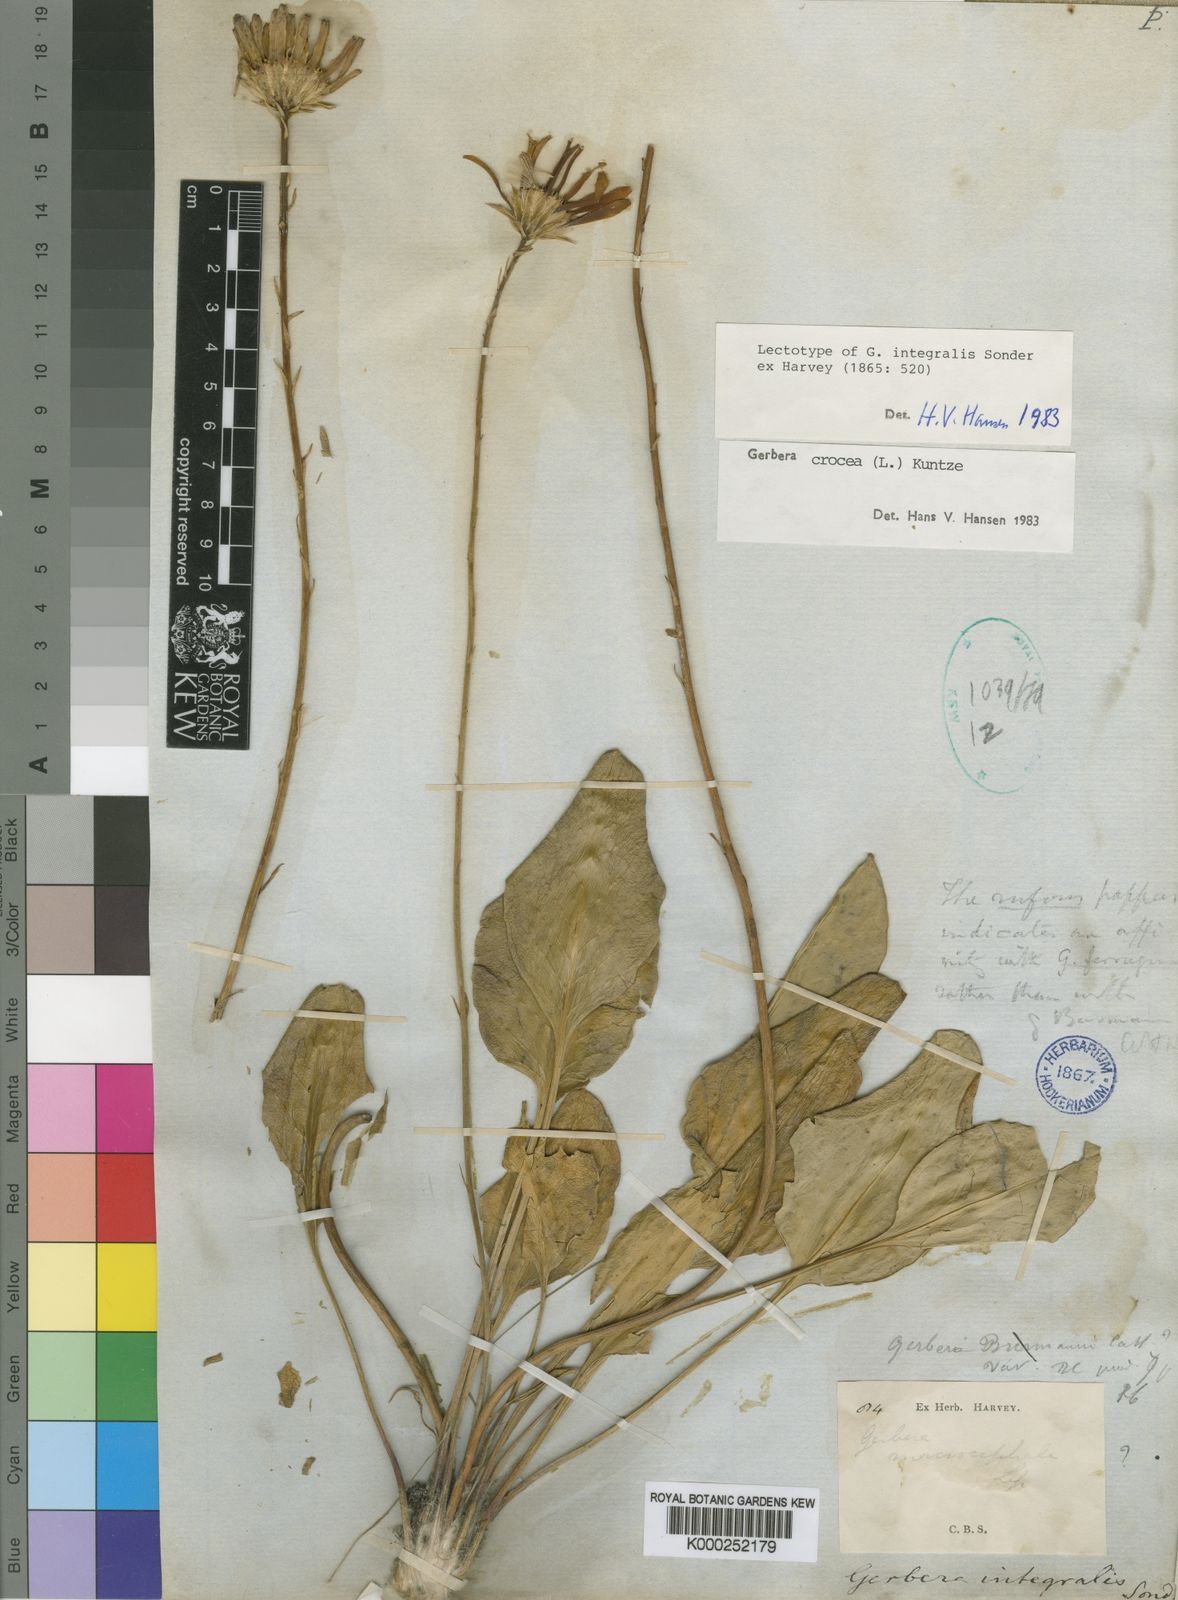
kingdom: Plantae
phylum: Tracheophyta
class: Magnoliopsida
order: Asterales
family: Asteraceae
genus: Gerbera
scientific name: Gerbera crocea
